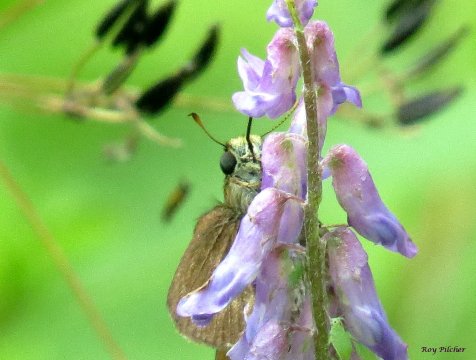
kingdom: Animalia
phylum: Arthropoda
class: Insecta
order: Lepidoptera
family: Hesperiidae
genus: Euphyes
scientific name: Euphyes vestris
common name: Dun Skipper
